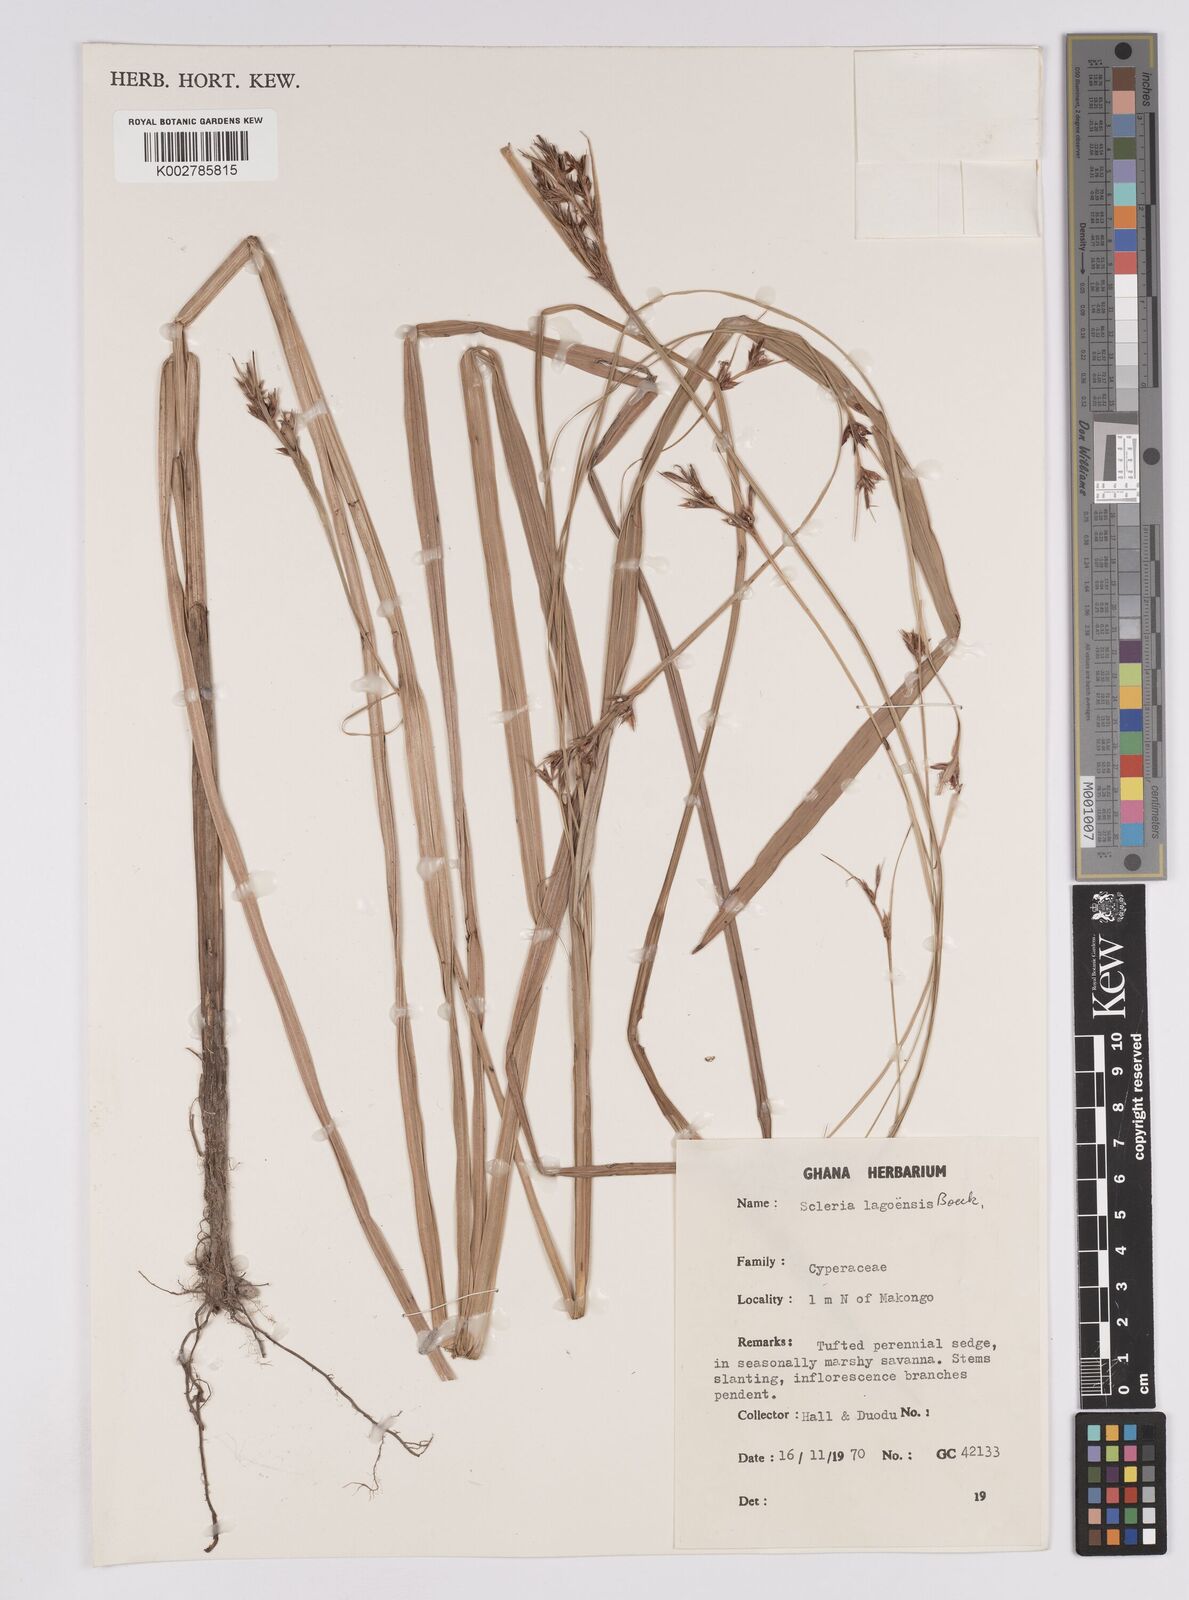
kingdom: Plantae
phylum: Tracheophyta
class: Liliopsida
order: Poales
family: Cyperaceae
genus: Scleria
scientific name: Scleria lagoensis
